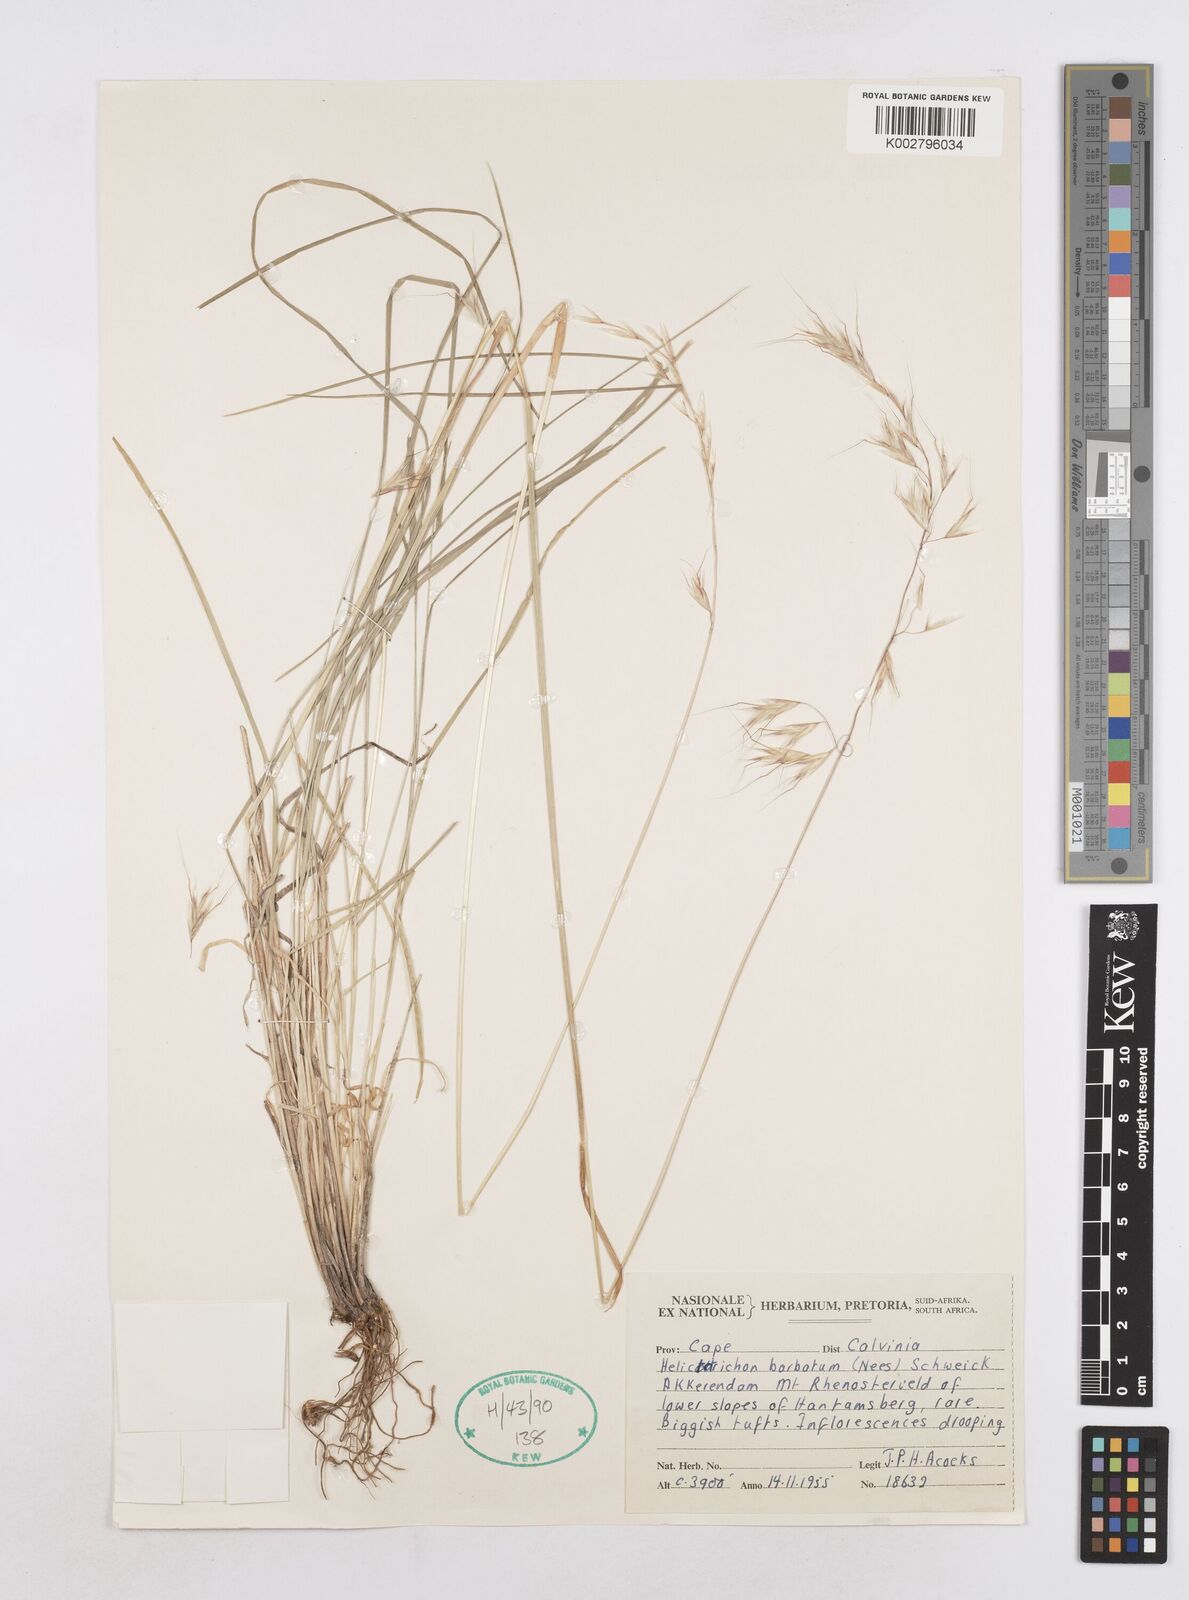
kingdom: Plantae
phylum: Tracheophyta
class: Liliopsida
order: Poales
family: Poaceae
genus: Trisetopsis
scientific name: Trisetopsis barbata
